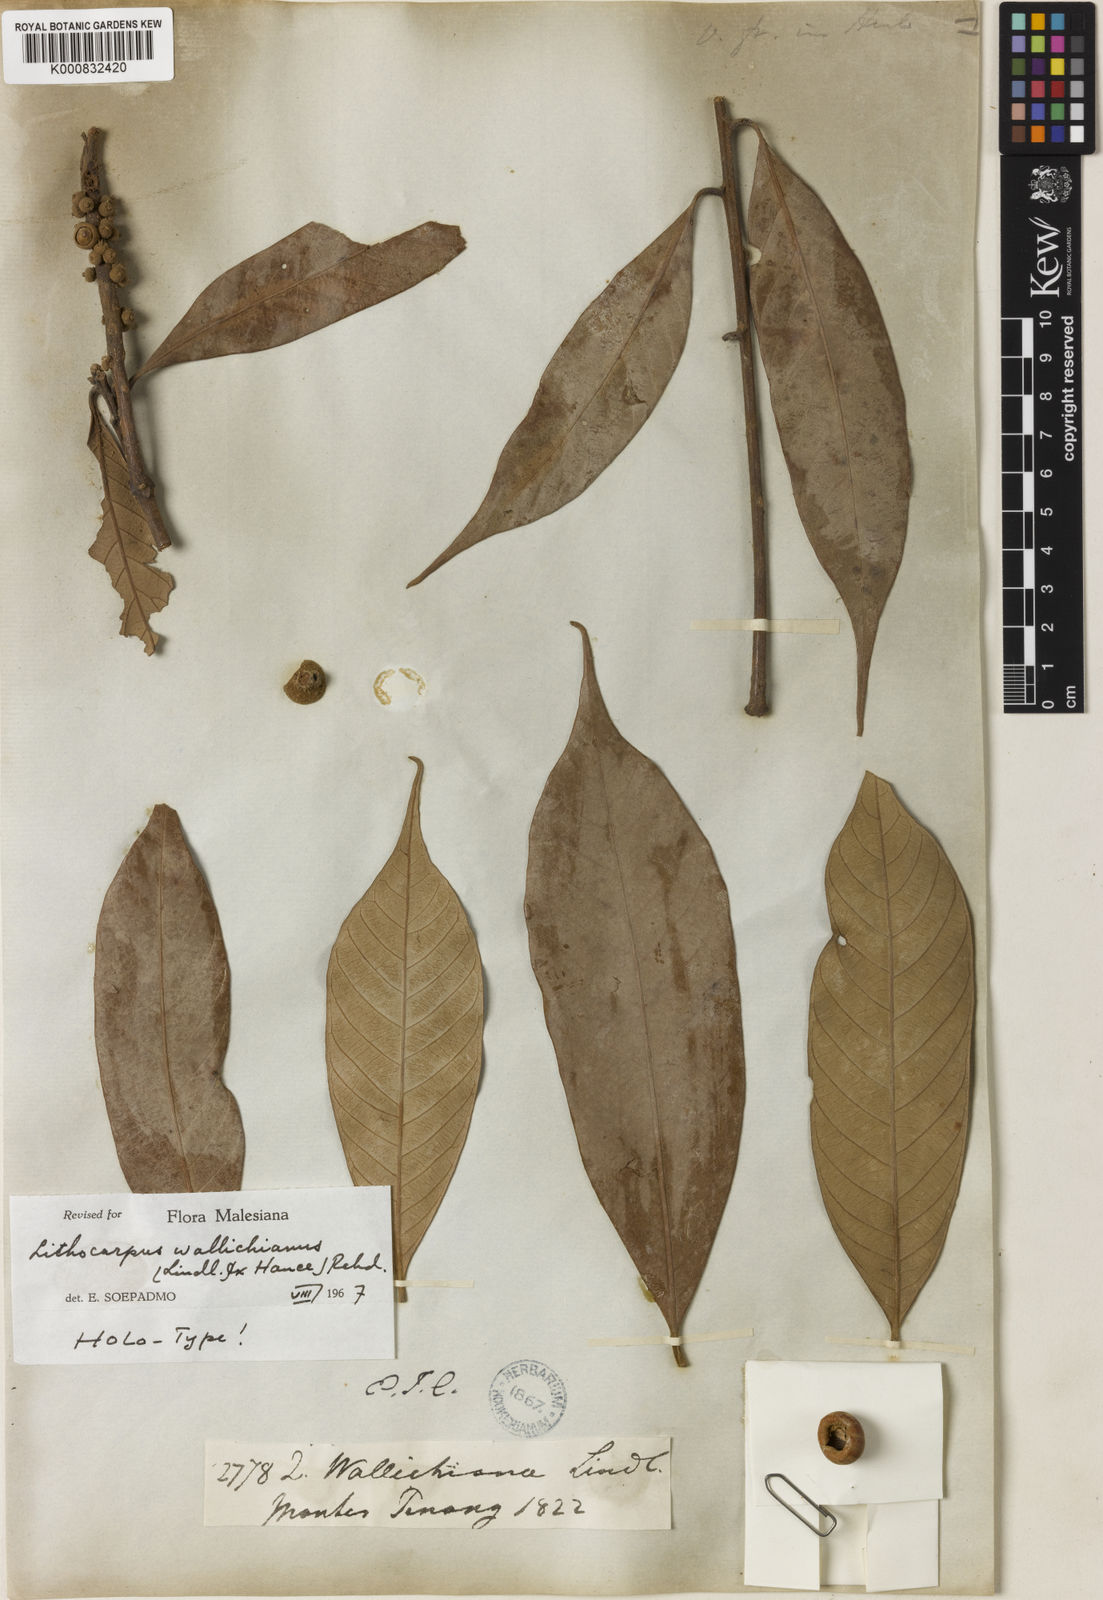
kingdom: Plantae
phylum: Tracheophyta
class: Magnoliopsida
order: Fagales
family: Fagaceae
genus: Lithocarpus
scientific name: Lithocarpus wallichianus
